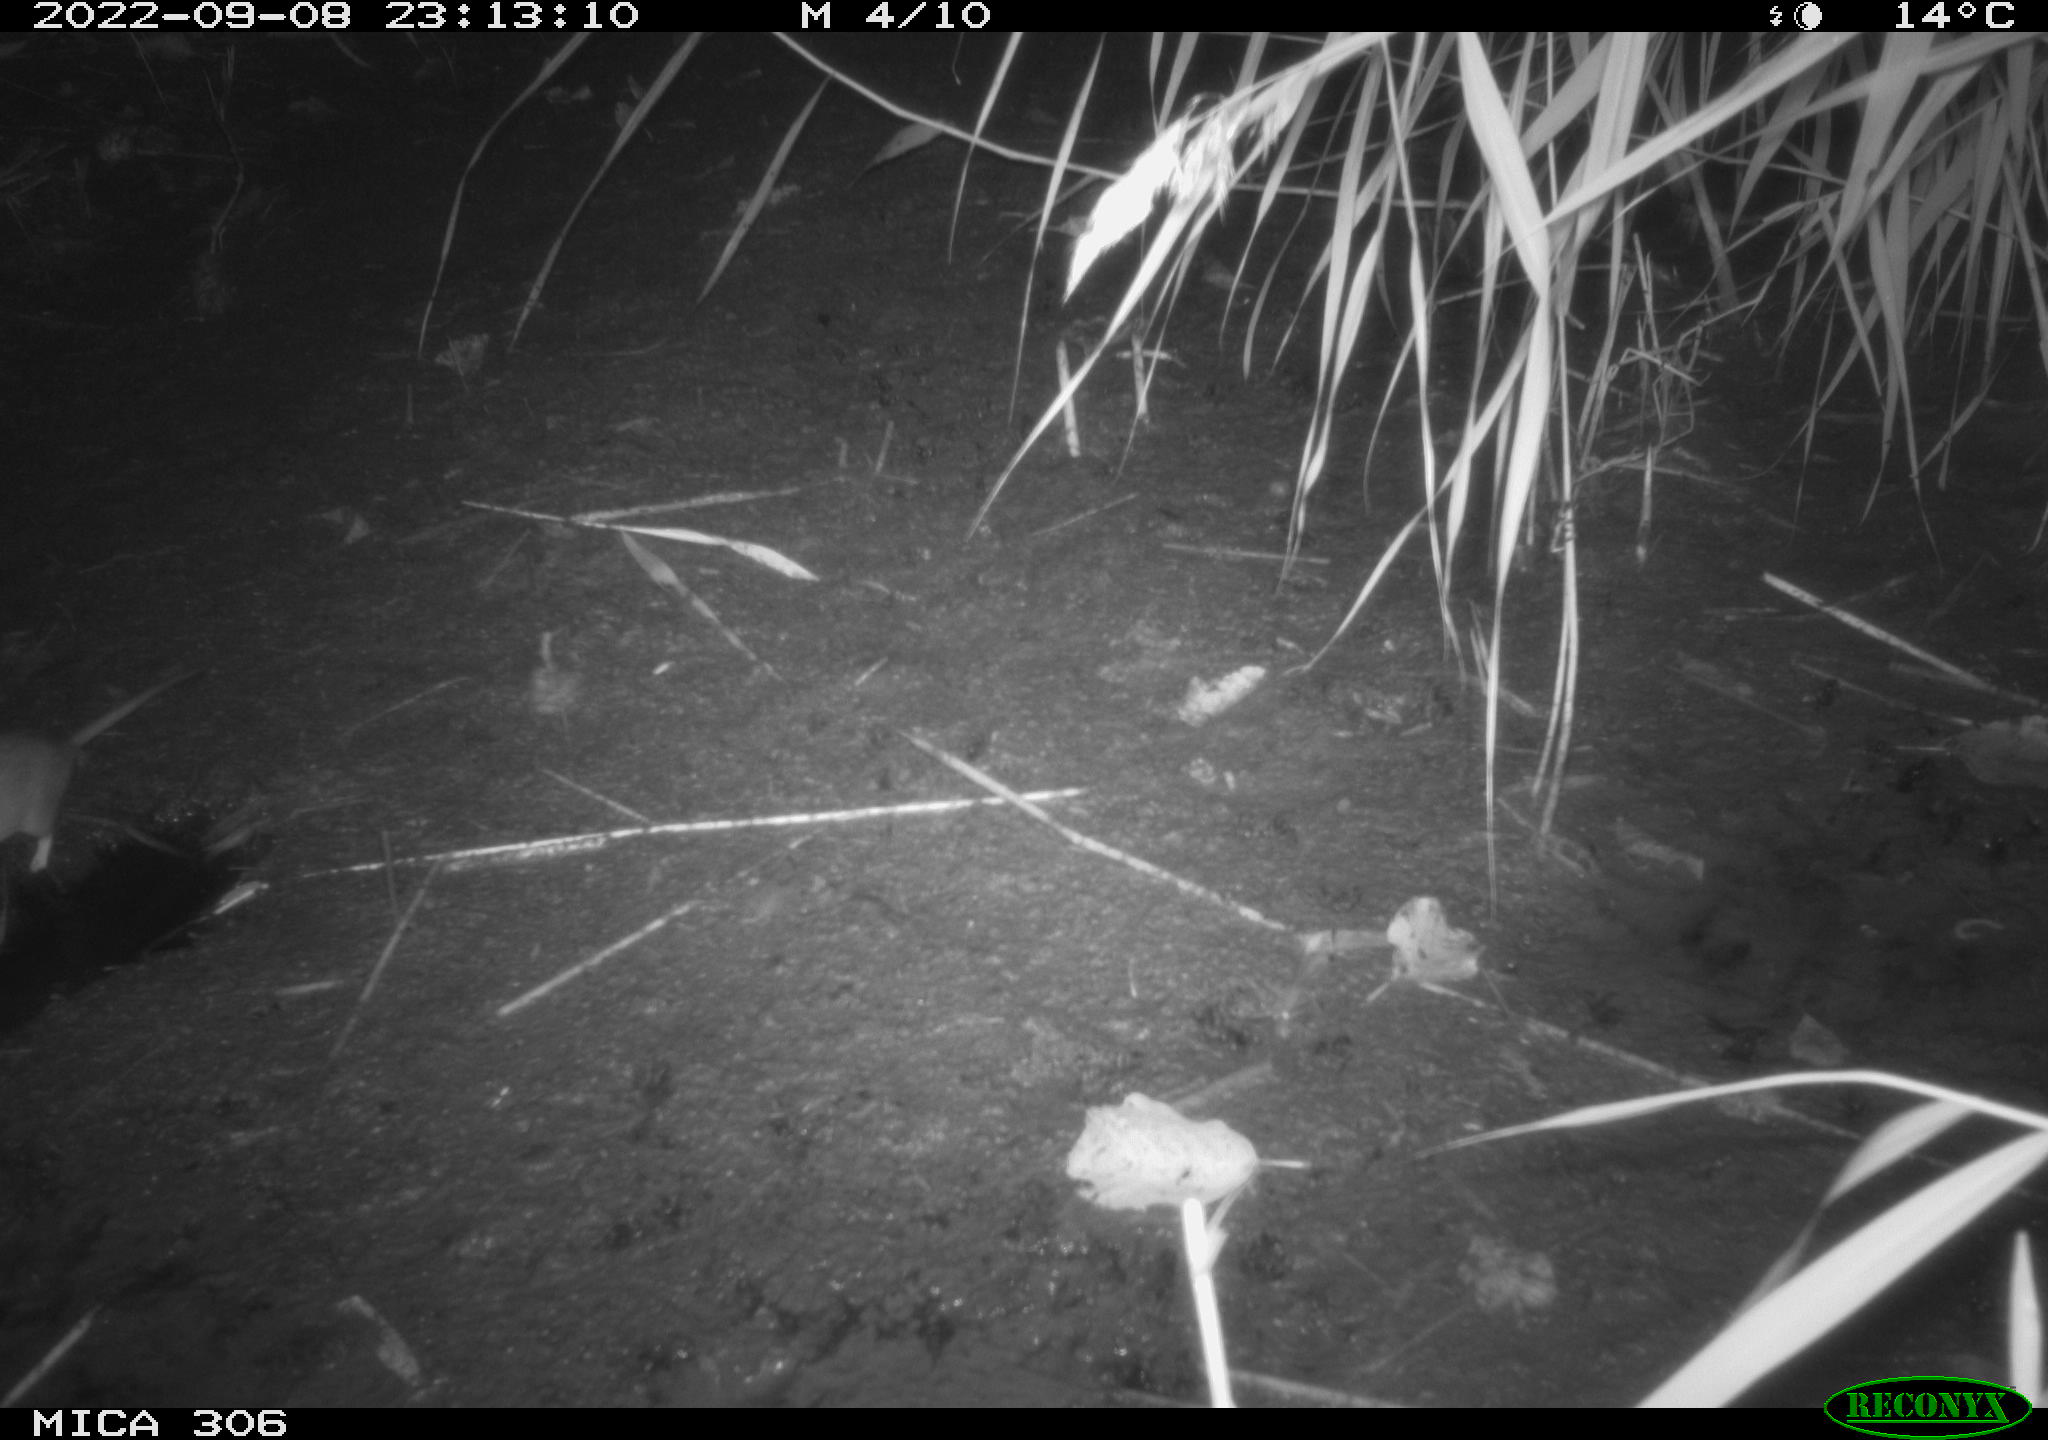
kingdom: Animalia
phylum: Chordata
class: Mammalia
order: Rodentia
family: Muridae
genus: Rattus
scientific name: Rattus norvegicus
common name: Brown rat
